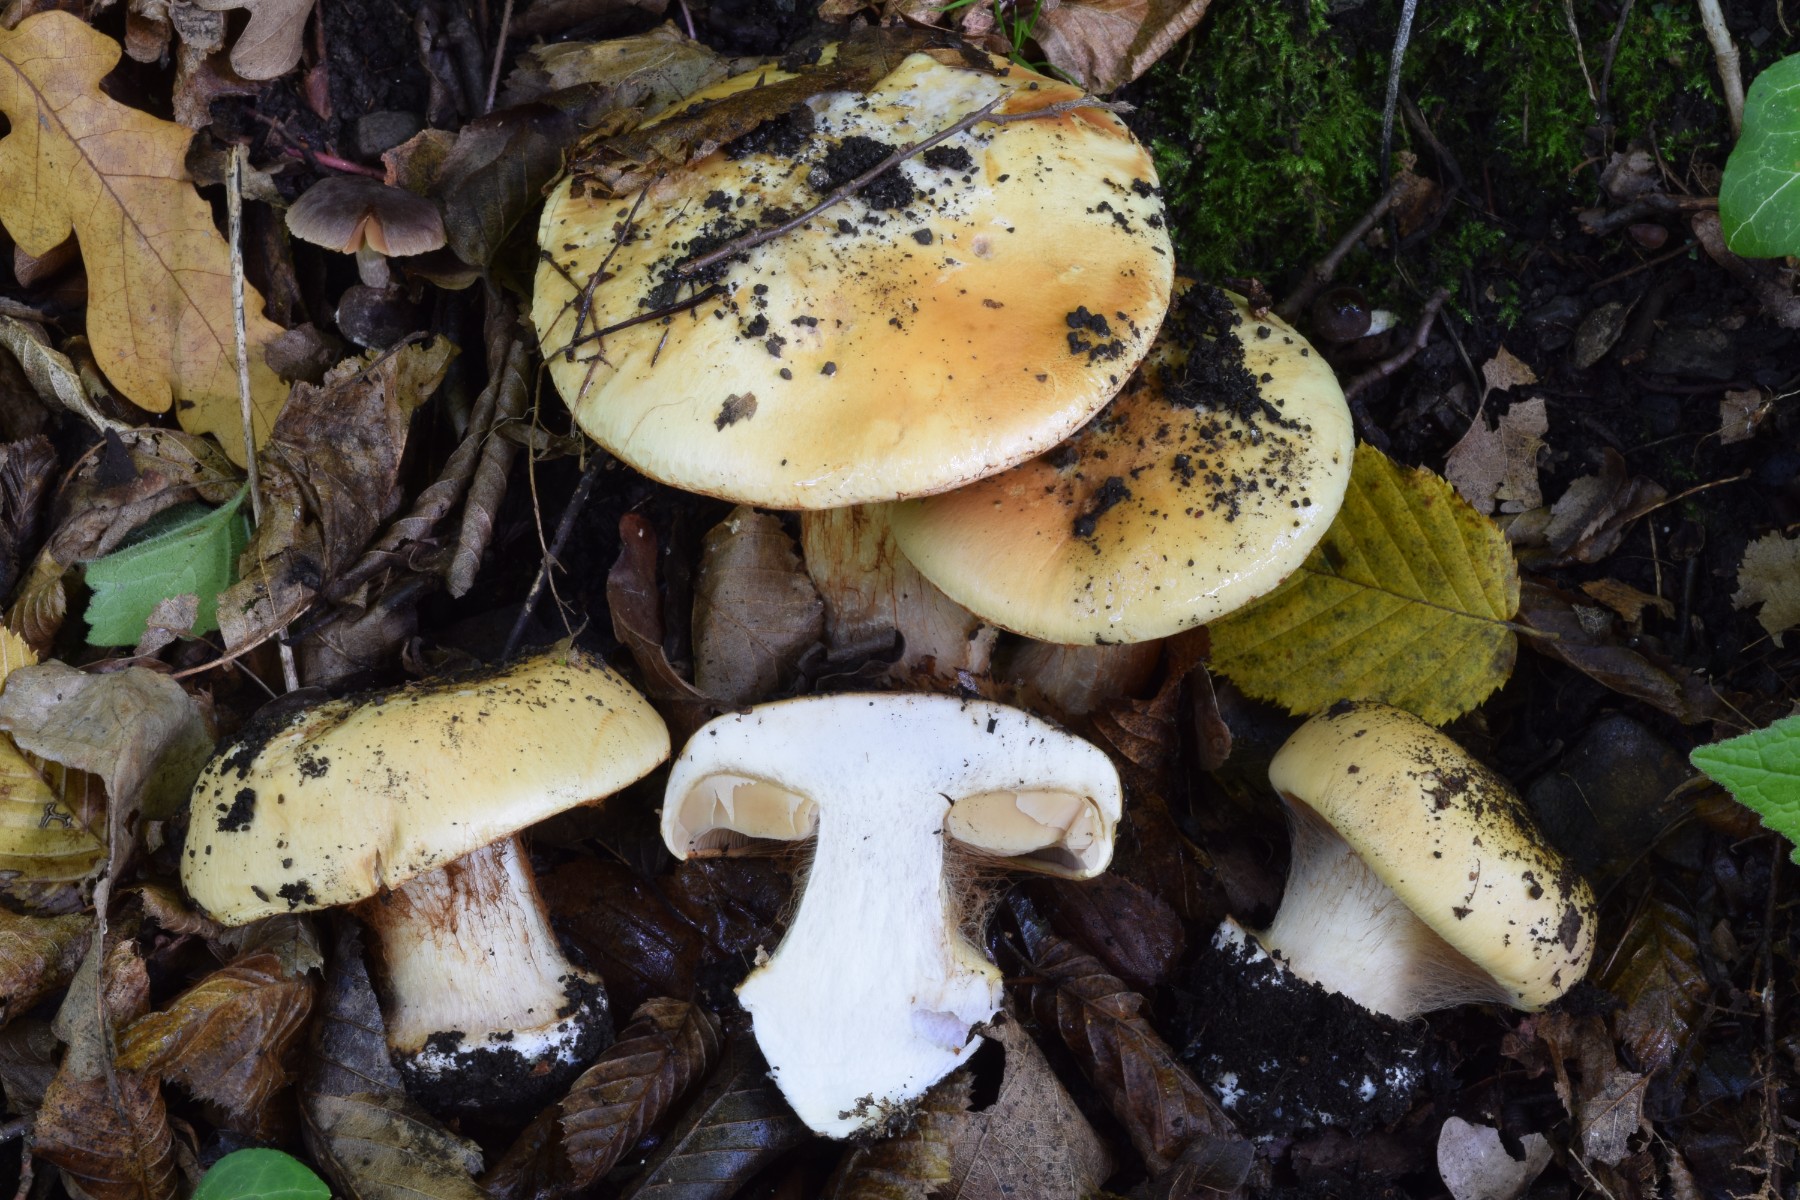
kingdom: Fungi
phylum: Basidiomycota
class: Agaricomycetes
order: Agaricales
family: Cortinariaceae
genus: Calonarius
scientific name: Calonarius humolens
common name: radise-slørhat
